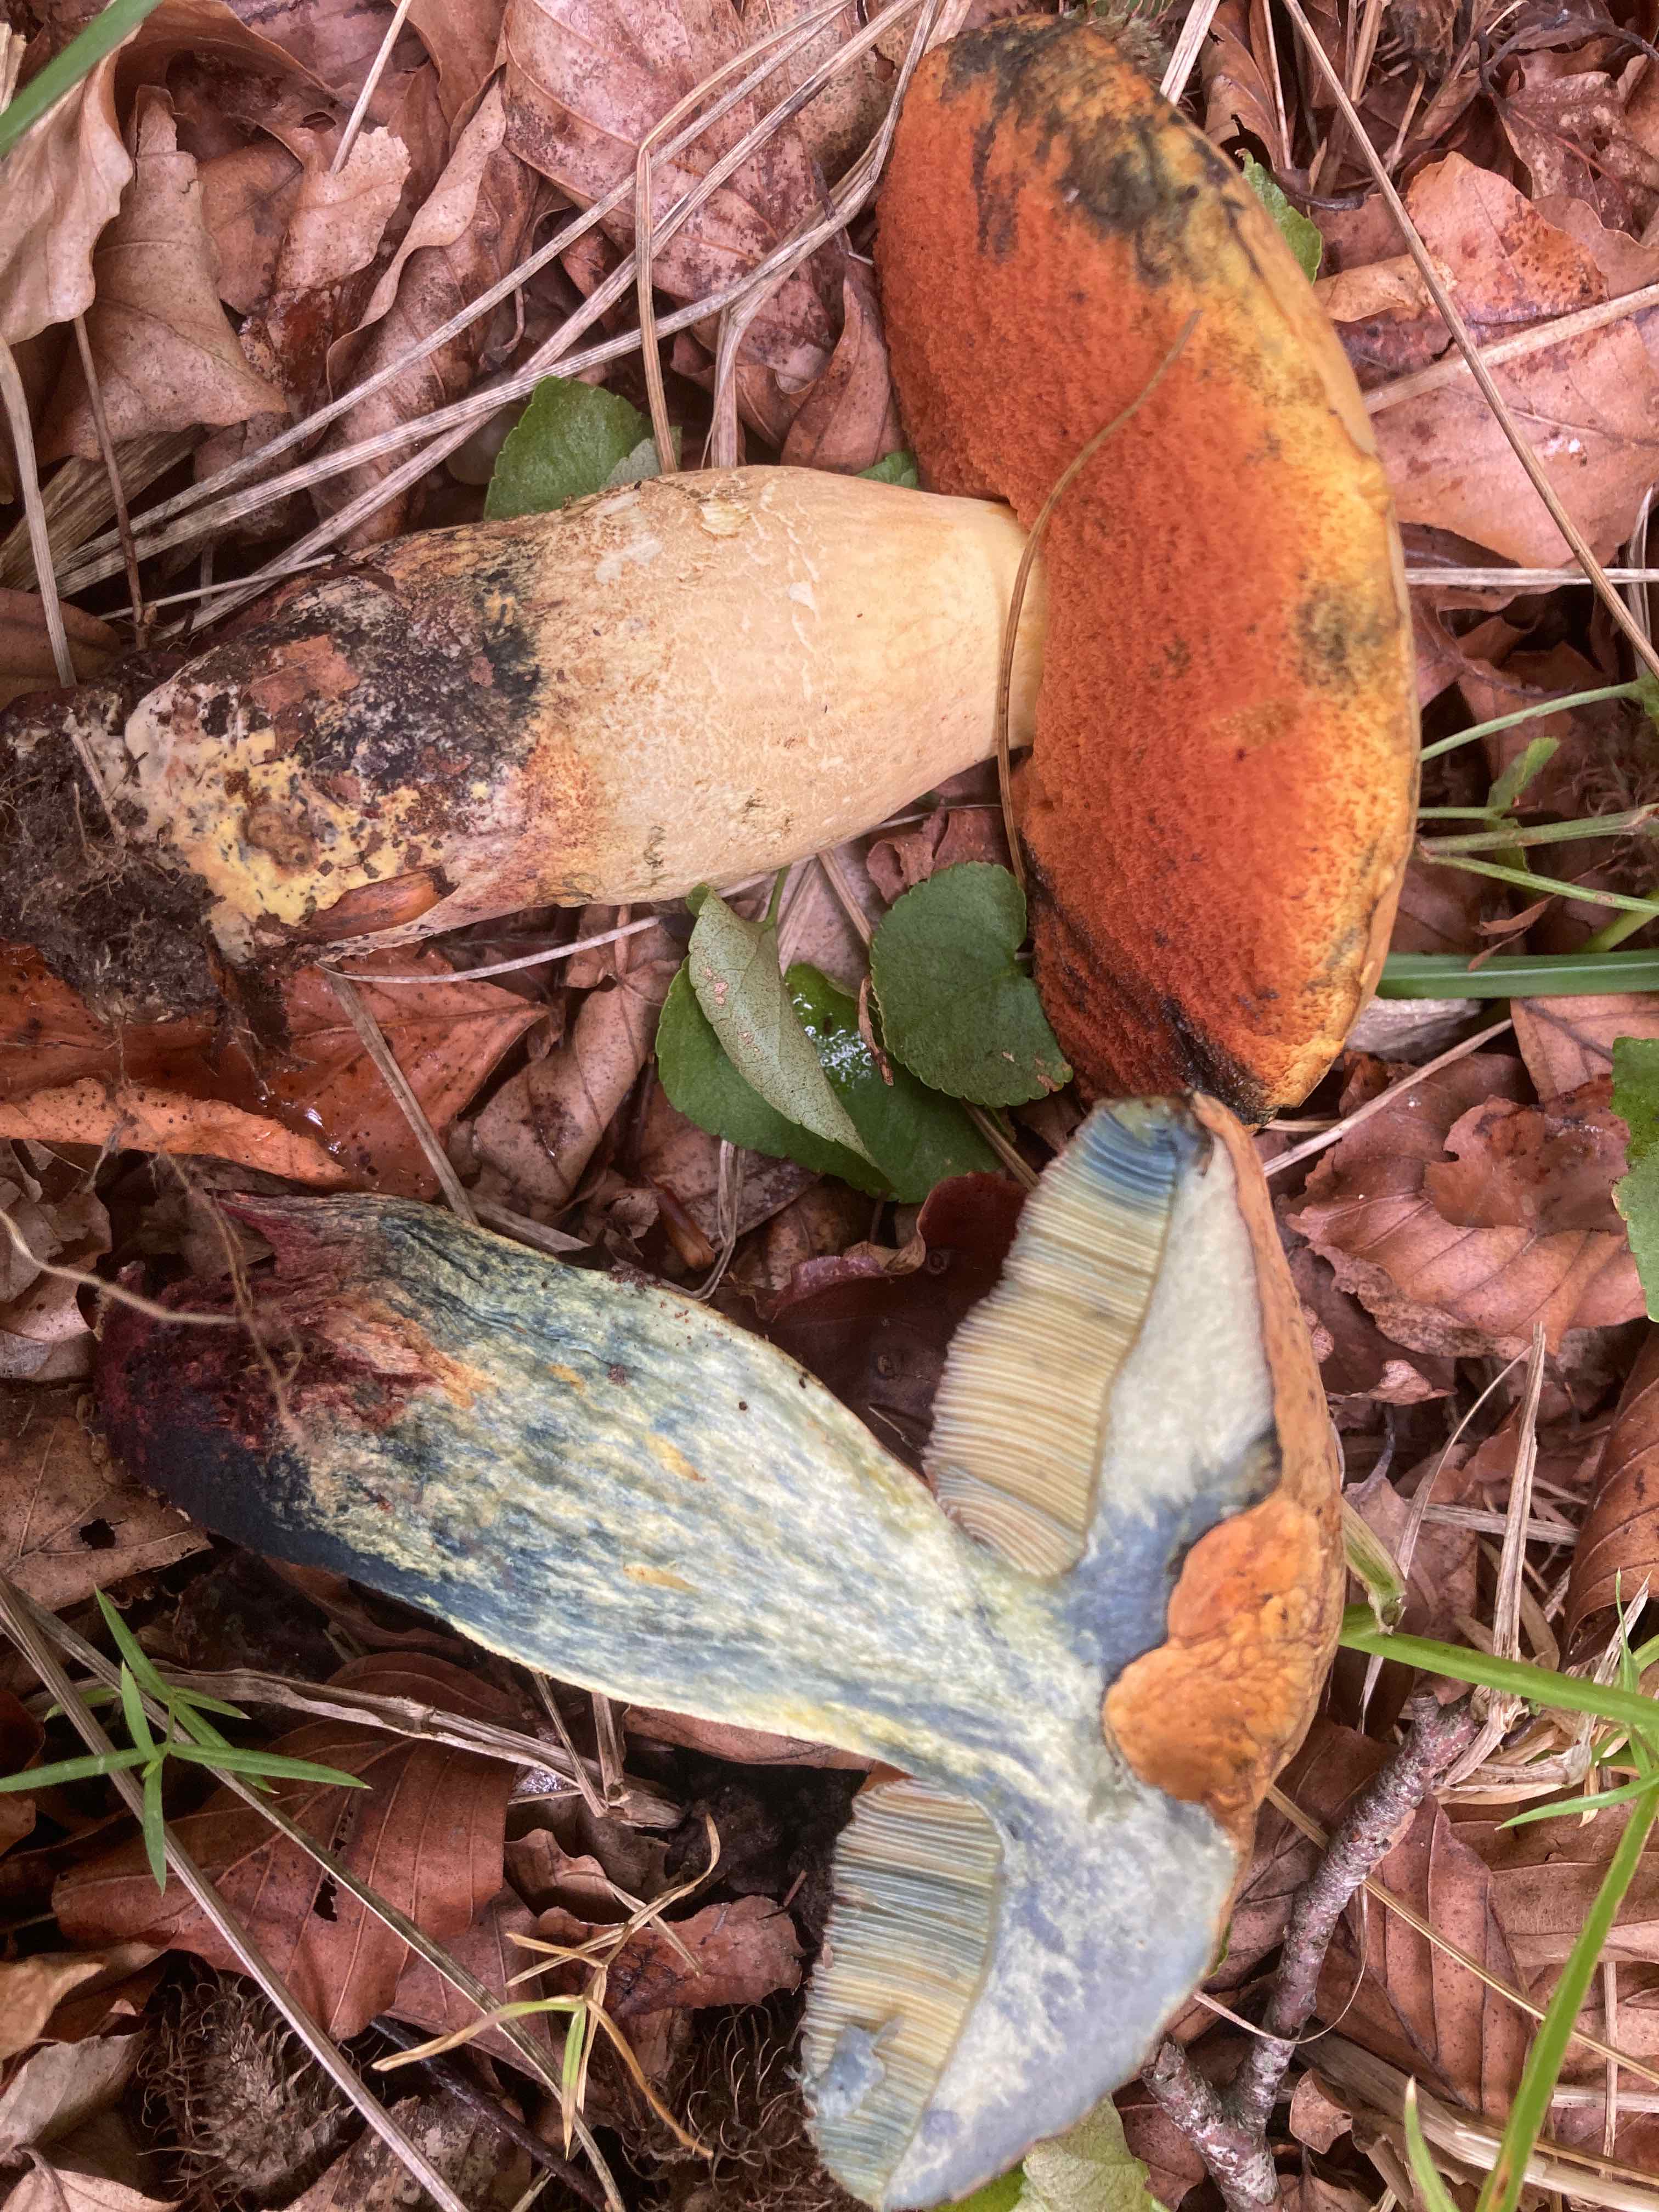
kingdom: Fungi
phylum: Basidiomycota
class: Agaricomycetes
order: Boletales
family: Boletaceae
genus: Suillellus
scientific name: Suillellus queletii
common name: glatstokket indigorørhat
